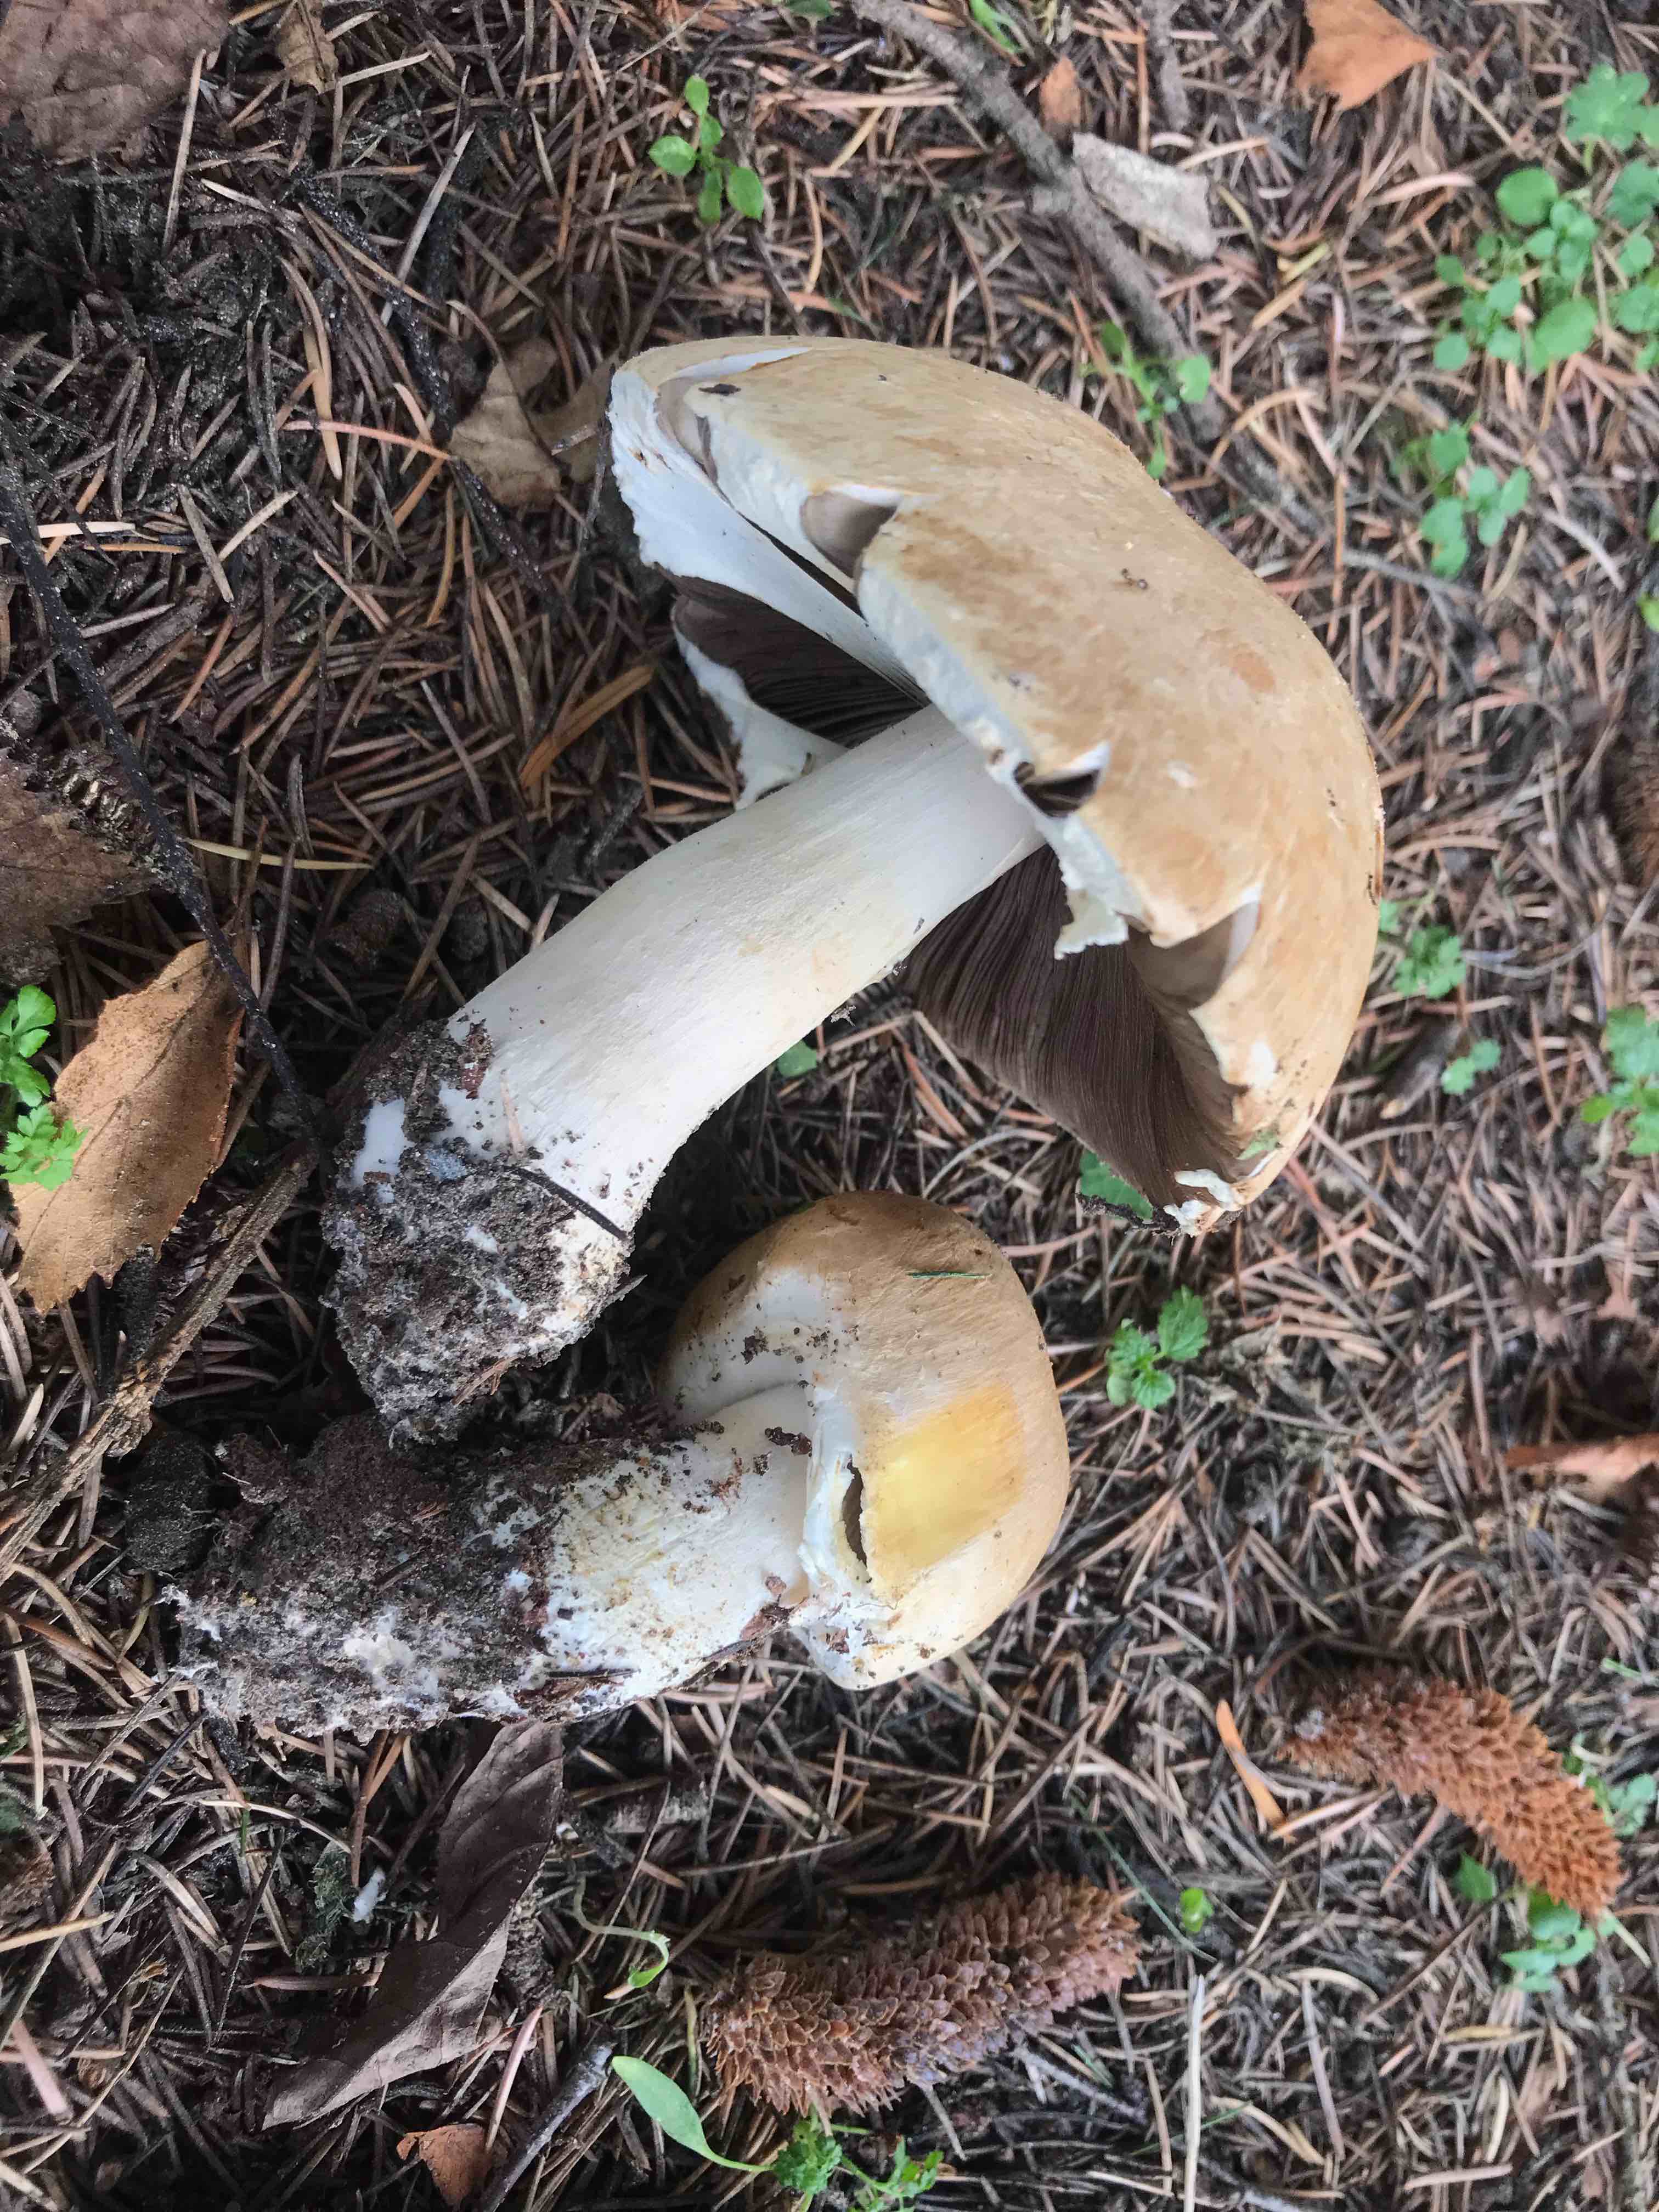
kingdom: Fungi
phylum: Basidiomycota
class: Agaricomycetes
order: Agaricales
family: Agaricaceae
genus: Agaricus
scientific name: Agaricus augustus
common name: prægtig champignon
